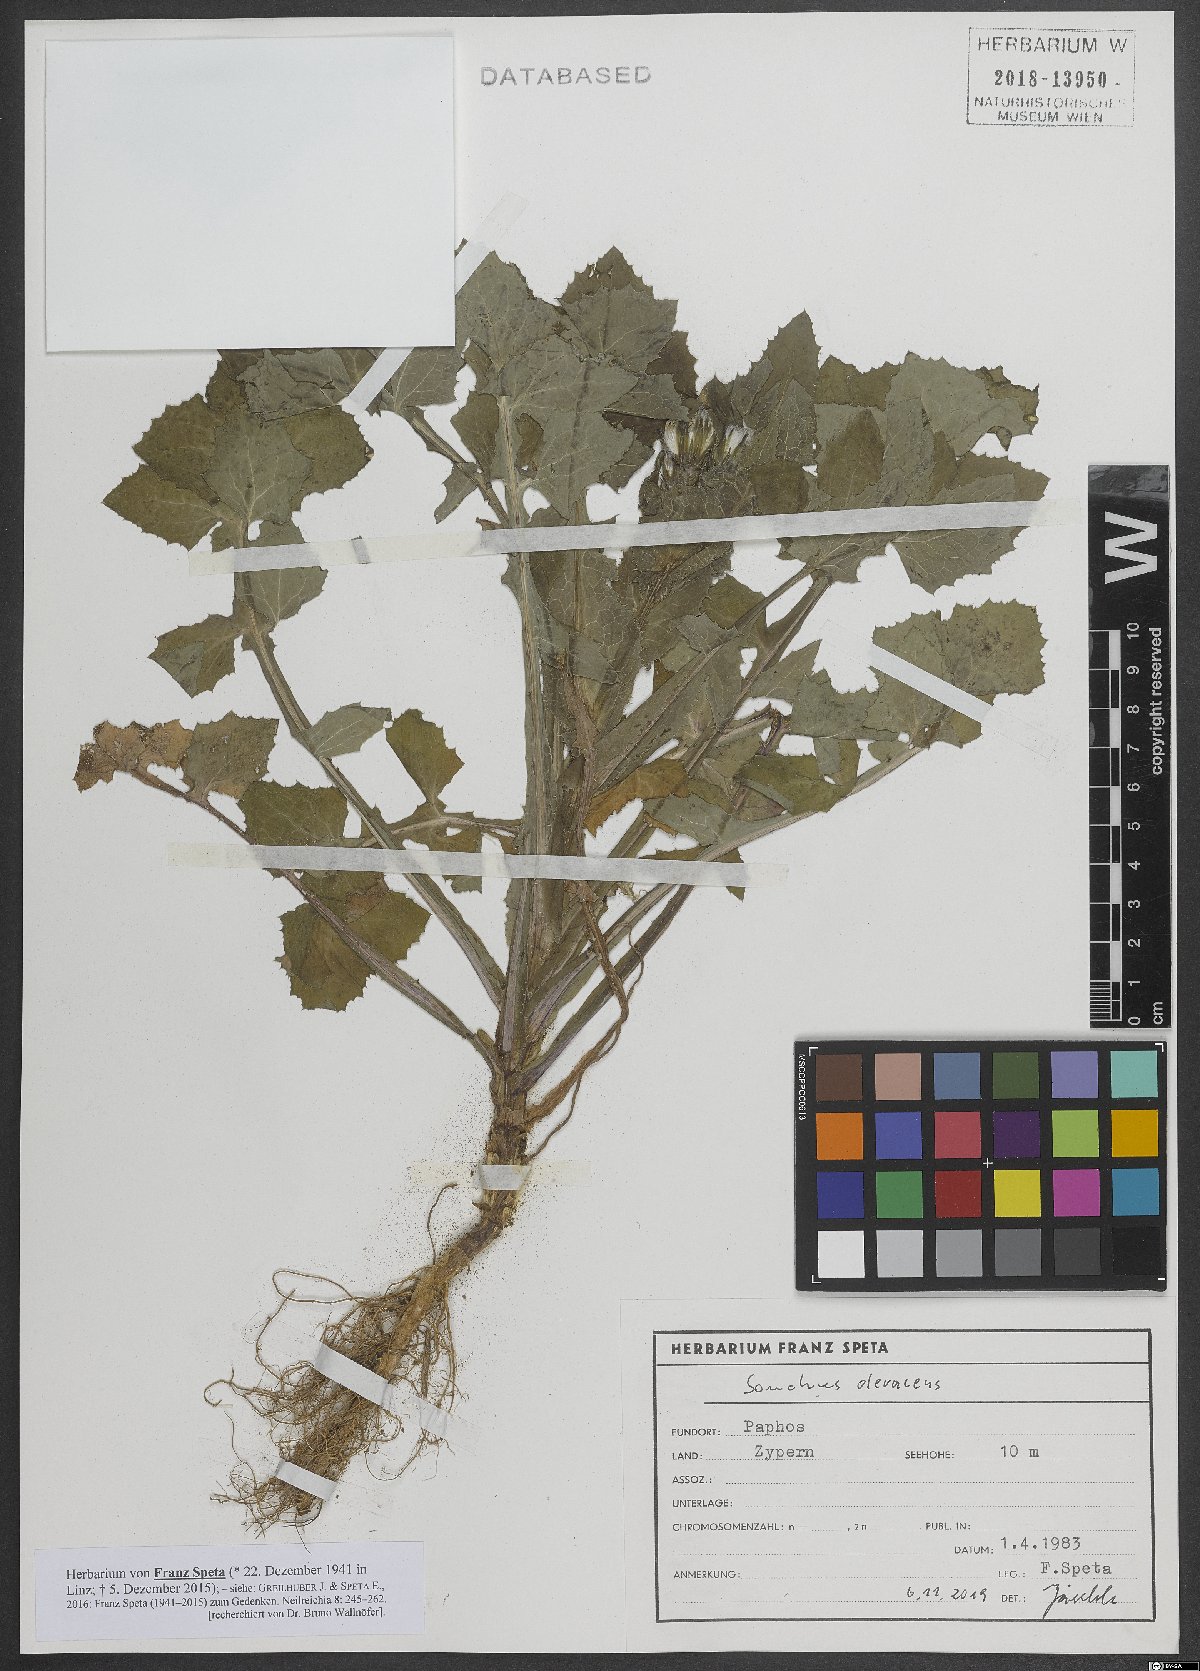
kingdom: Plantae
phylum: Tracheophyta
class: Magnoliopsida
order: Asterales
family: Asteraceae
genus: Sonchus
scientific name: Sonchus oleraceus
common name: Common sowthistle
